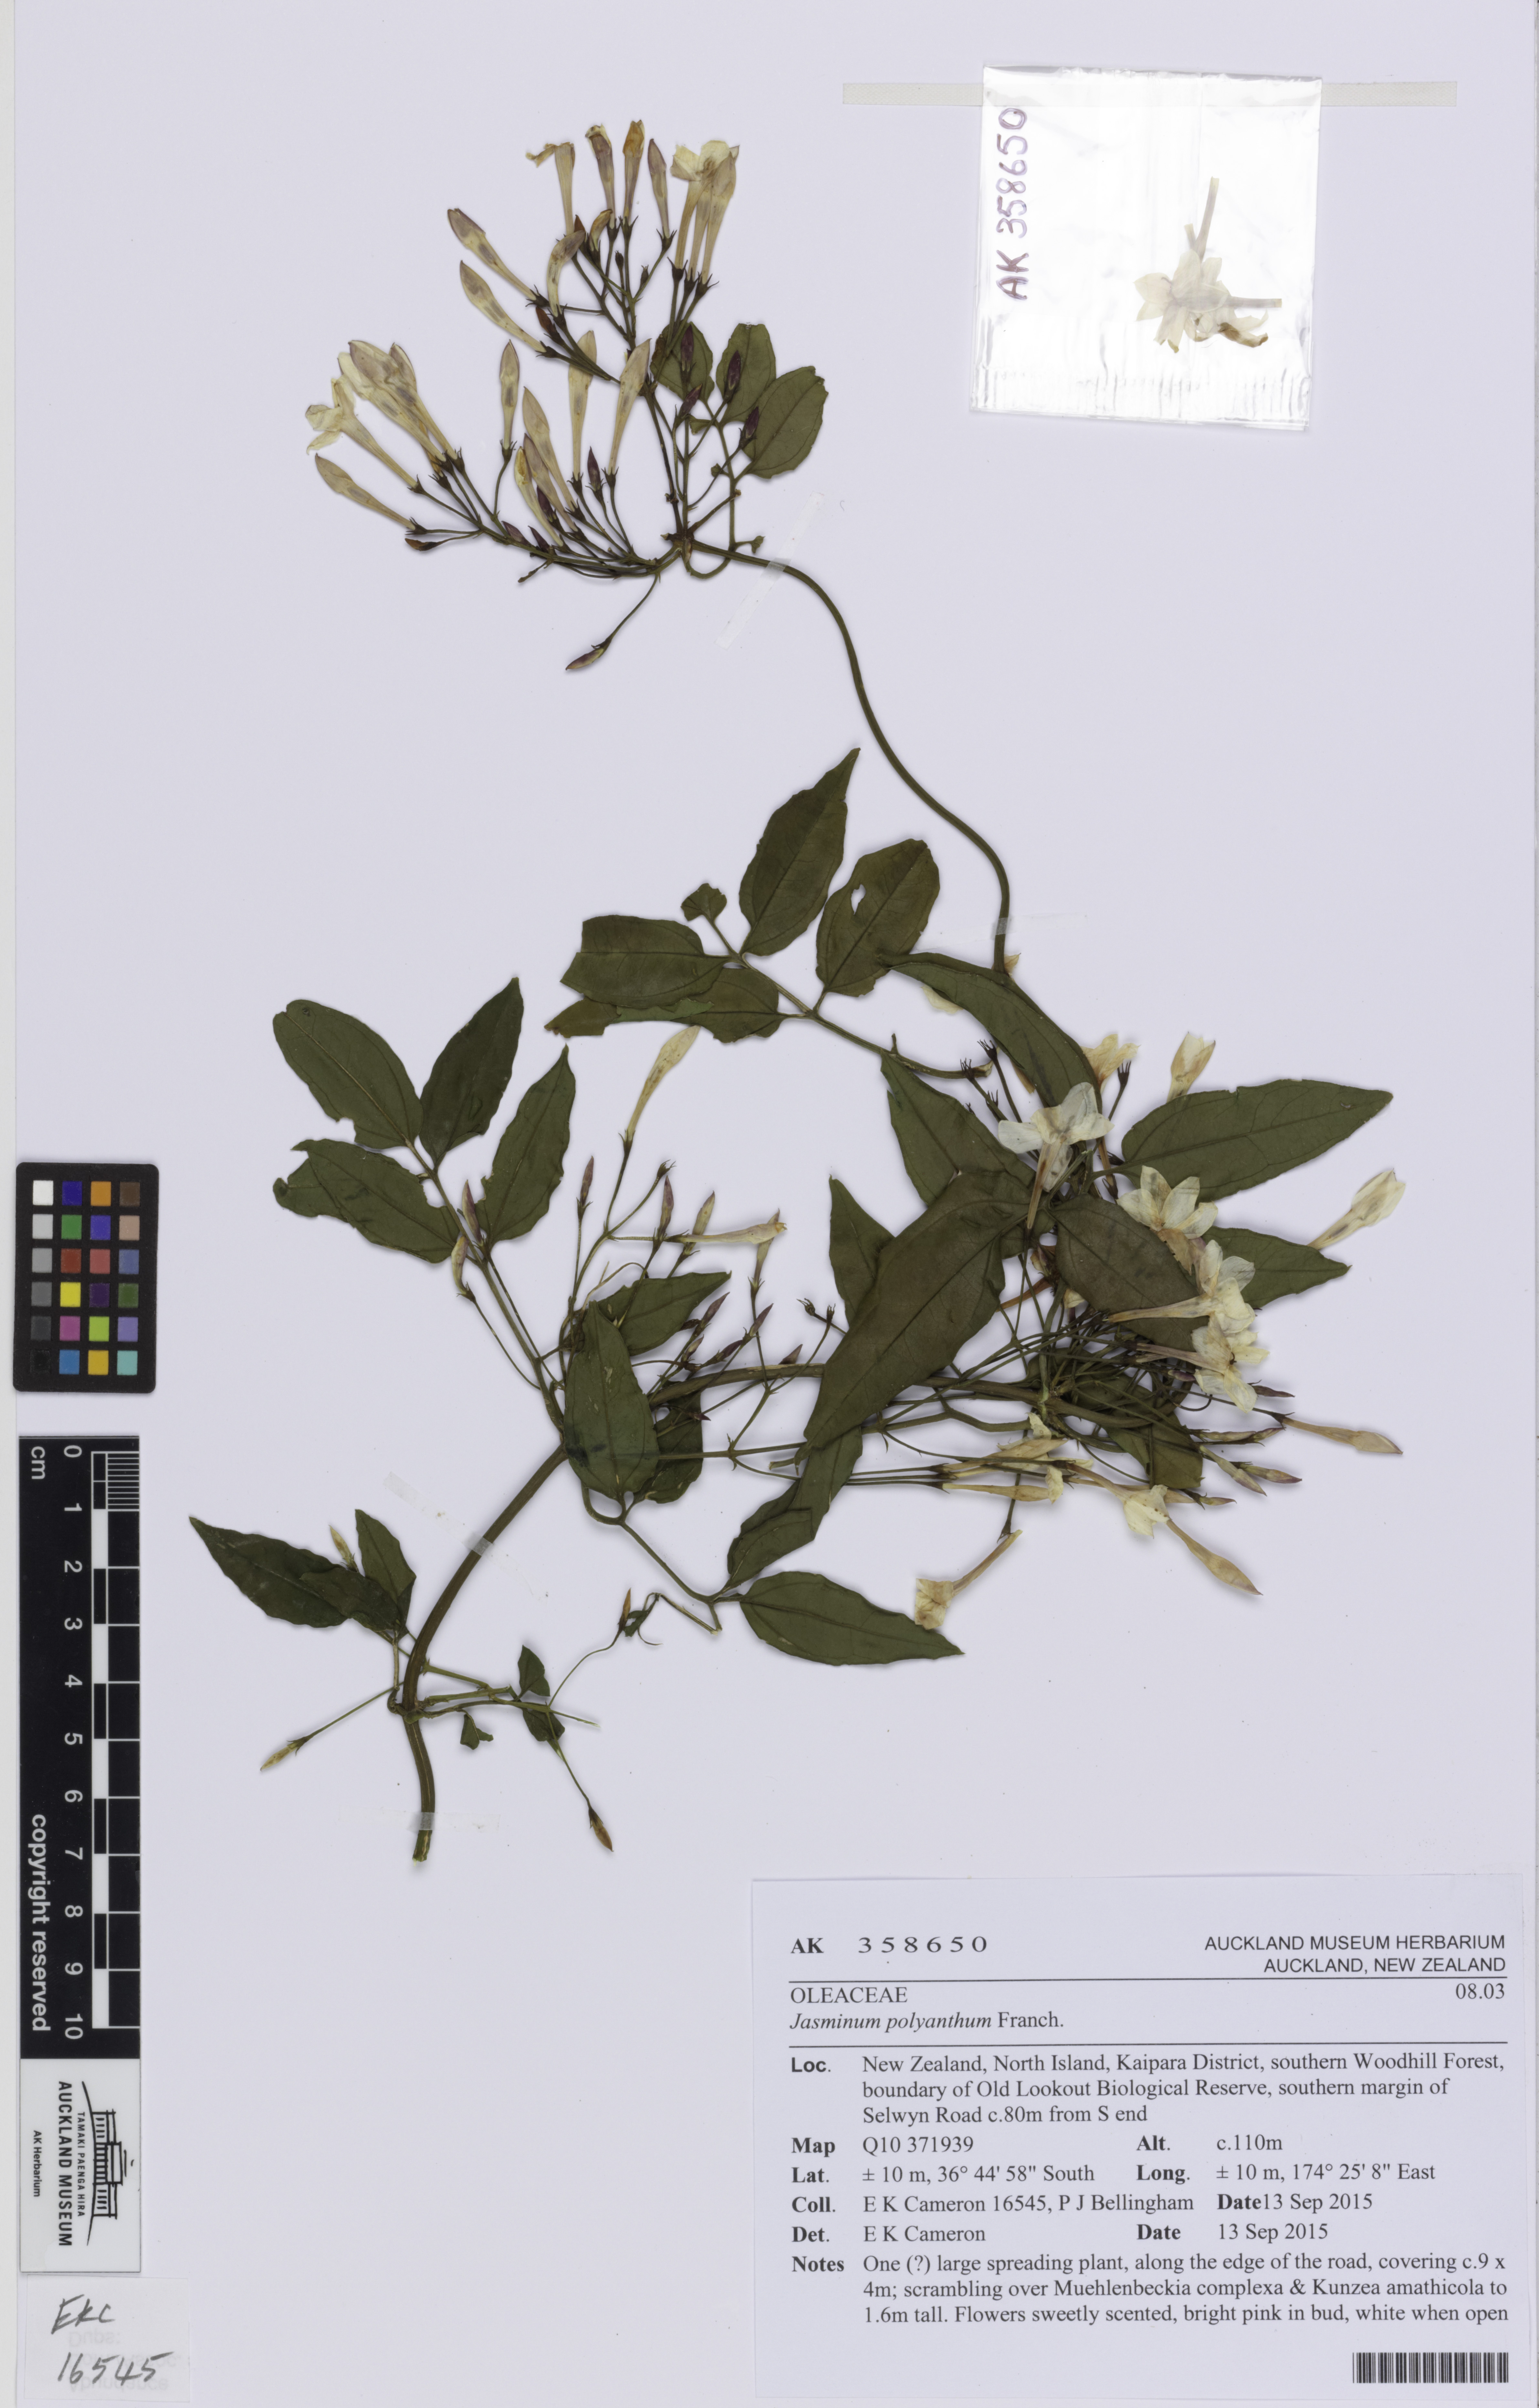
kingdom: Plantae
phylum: Tracheophyta
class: Magnoliopsida
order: Lamiales
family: Oleaceae
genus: Jasminum
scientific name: Jasminum polyanthum
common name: Pink jasmine
